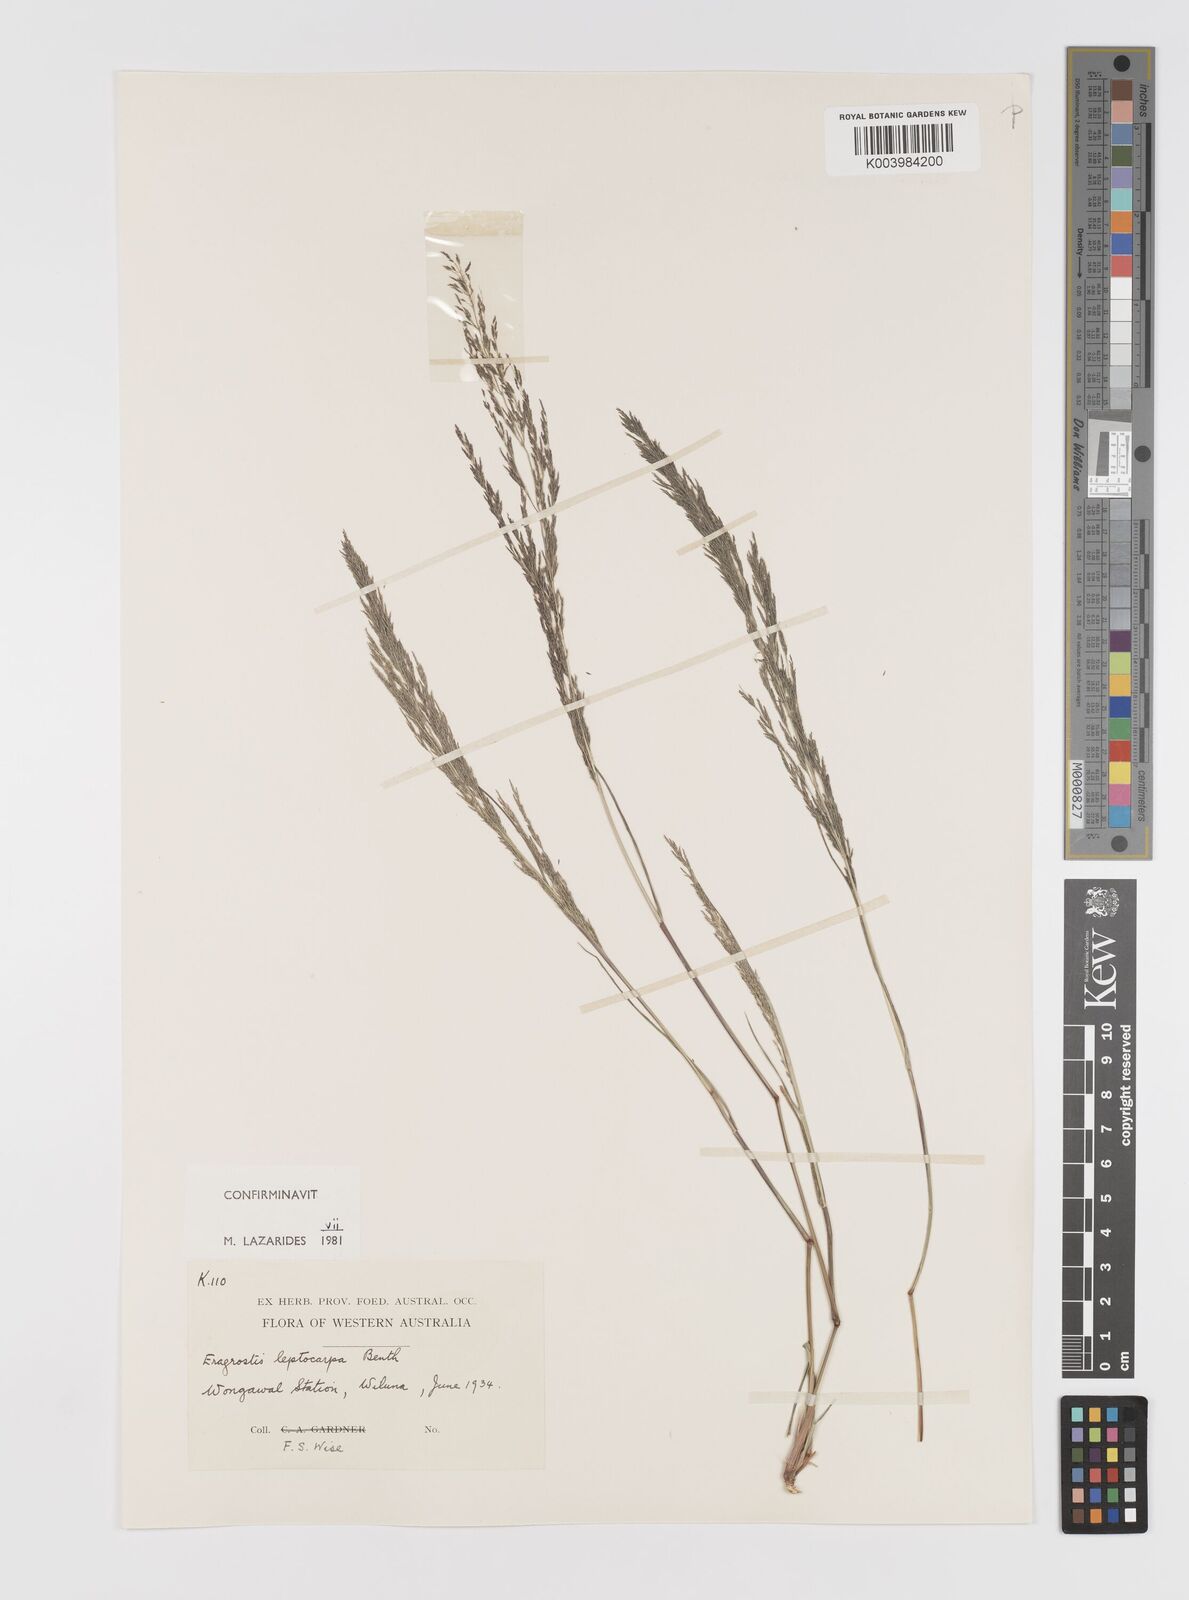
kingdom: Plantae
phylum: Tracheophyta
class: Liliopsida
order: Poales
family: Poaceae
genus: Eragrostis
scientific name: Eragrostis leptocarpa
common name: Drooping love grass
